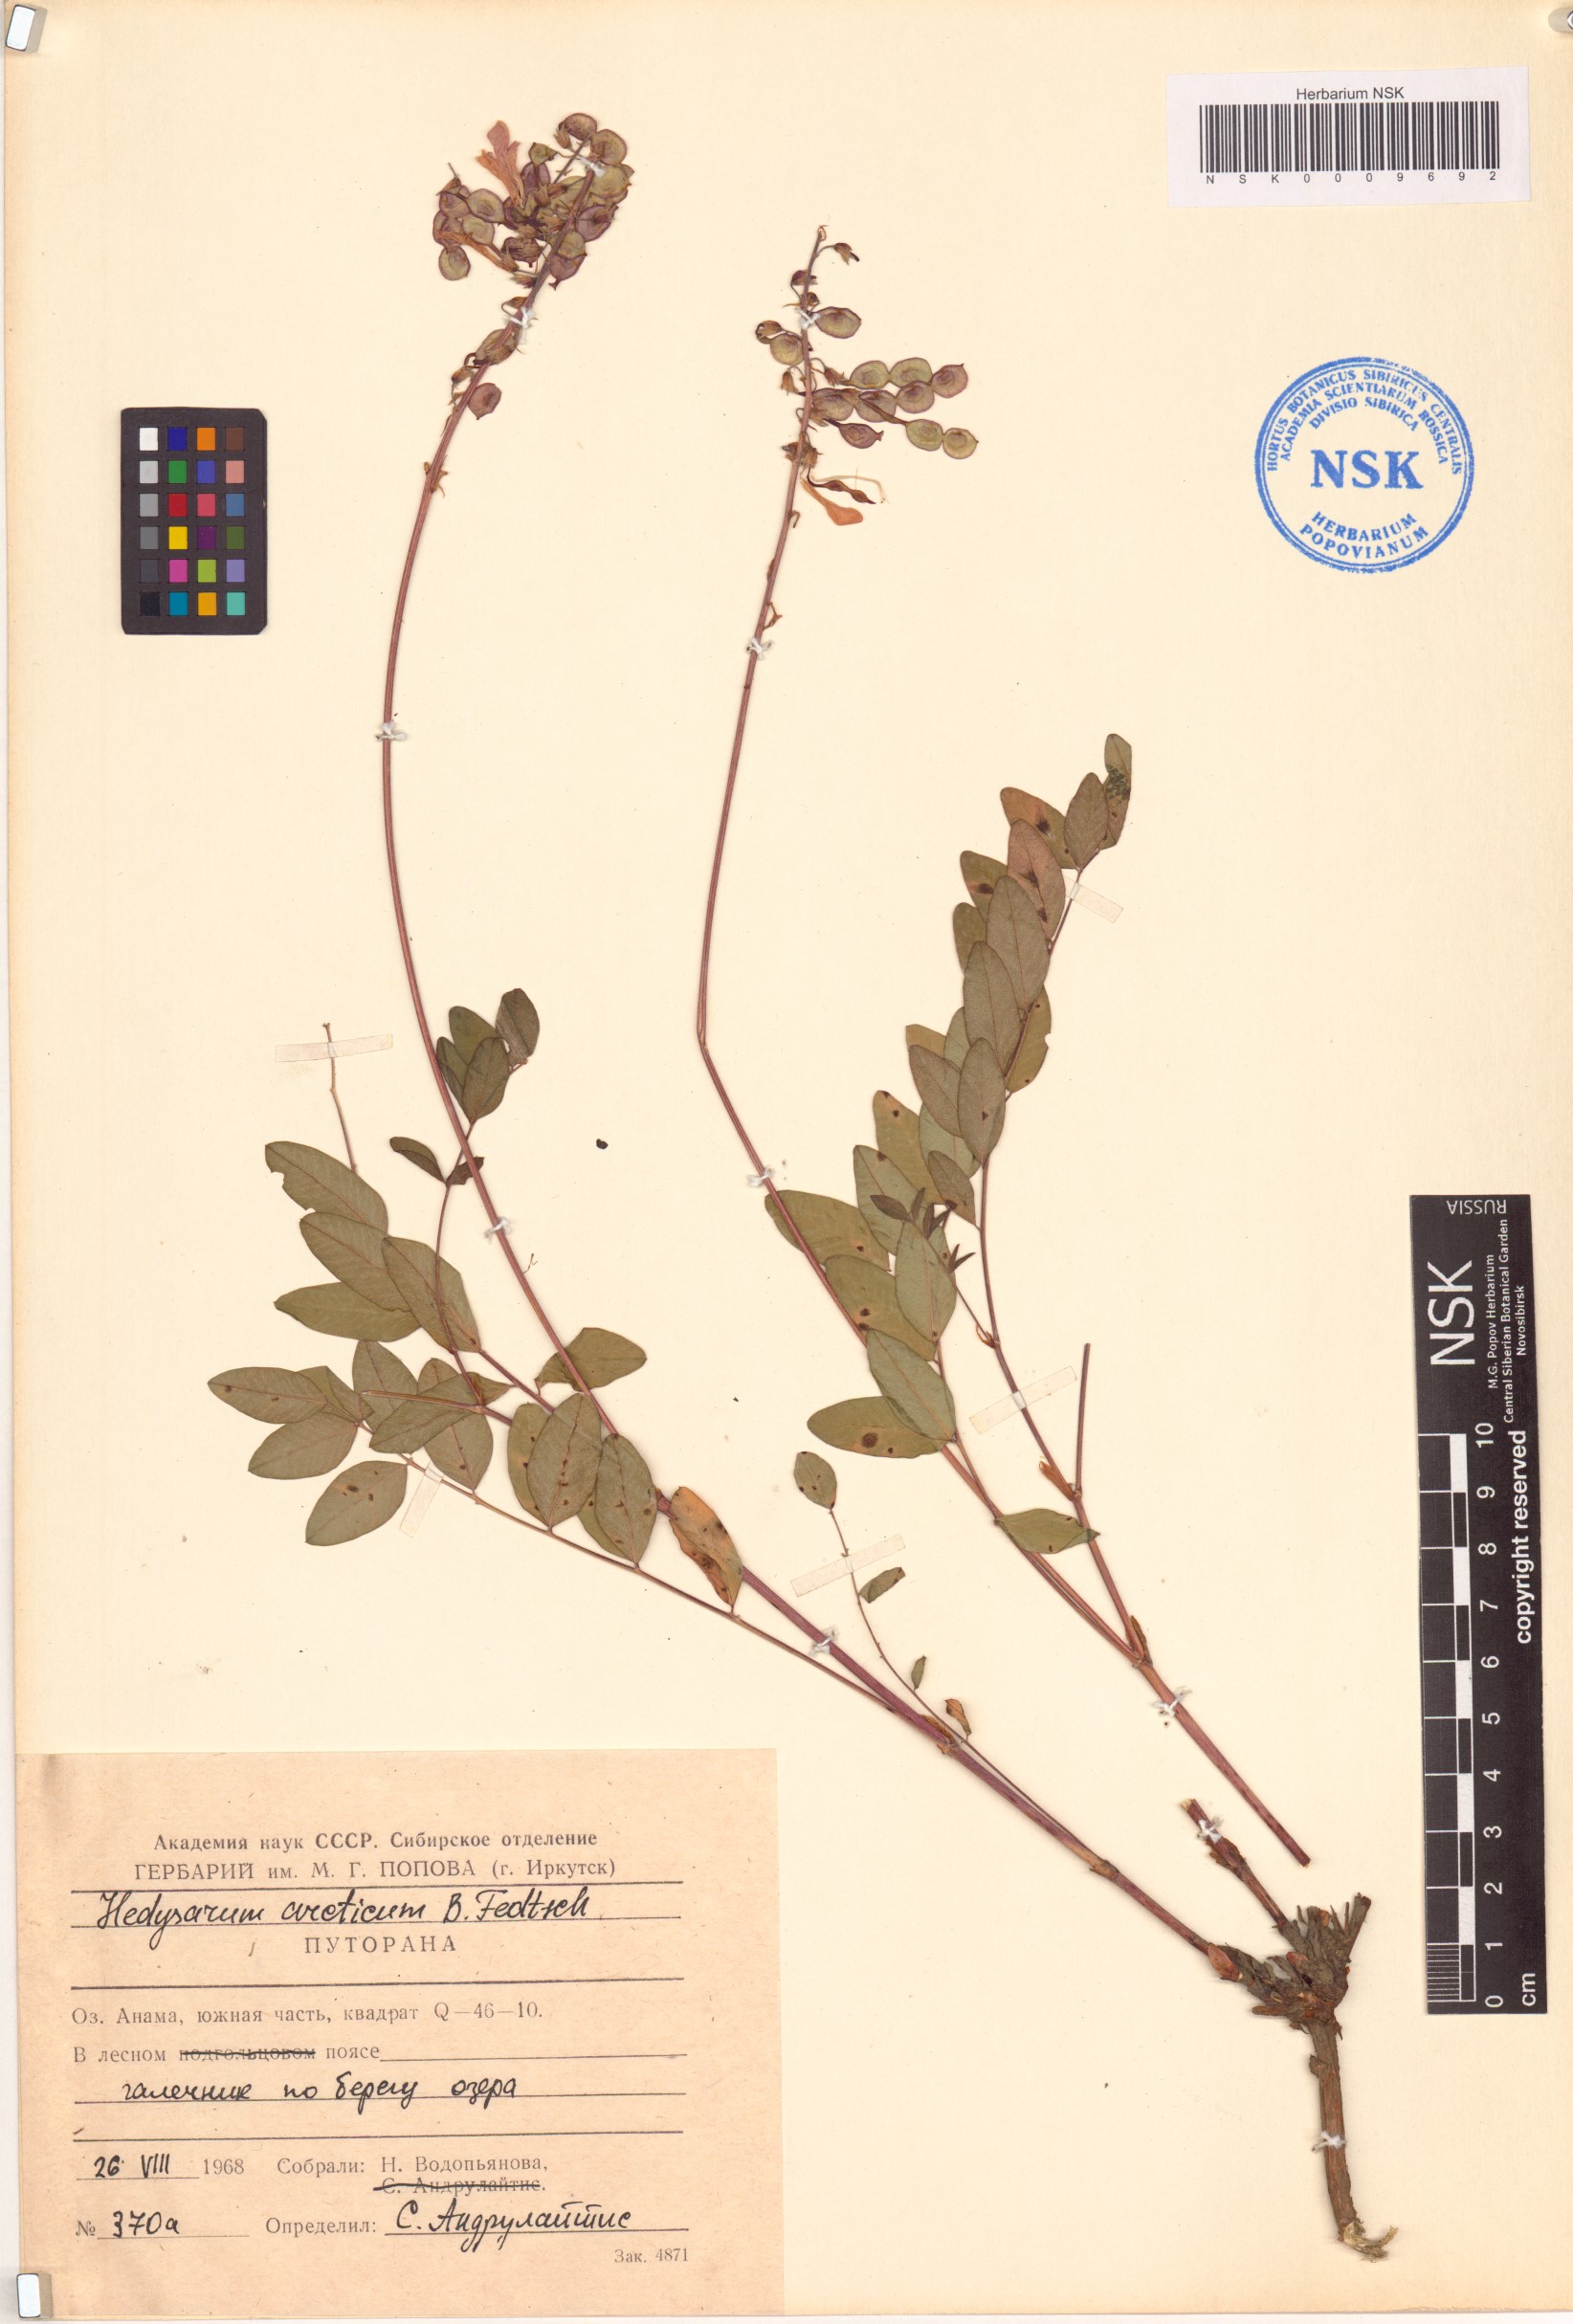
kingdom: Plantae
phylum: Tracheophyta
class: Magnoliopsida
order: Fabales
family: Fabaceae
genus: Hedysarum
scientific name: Hedysarum hedysaroides
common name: Alpine french-honeysuckle
